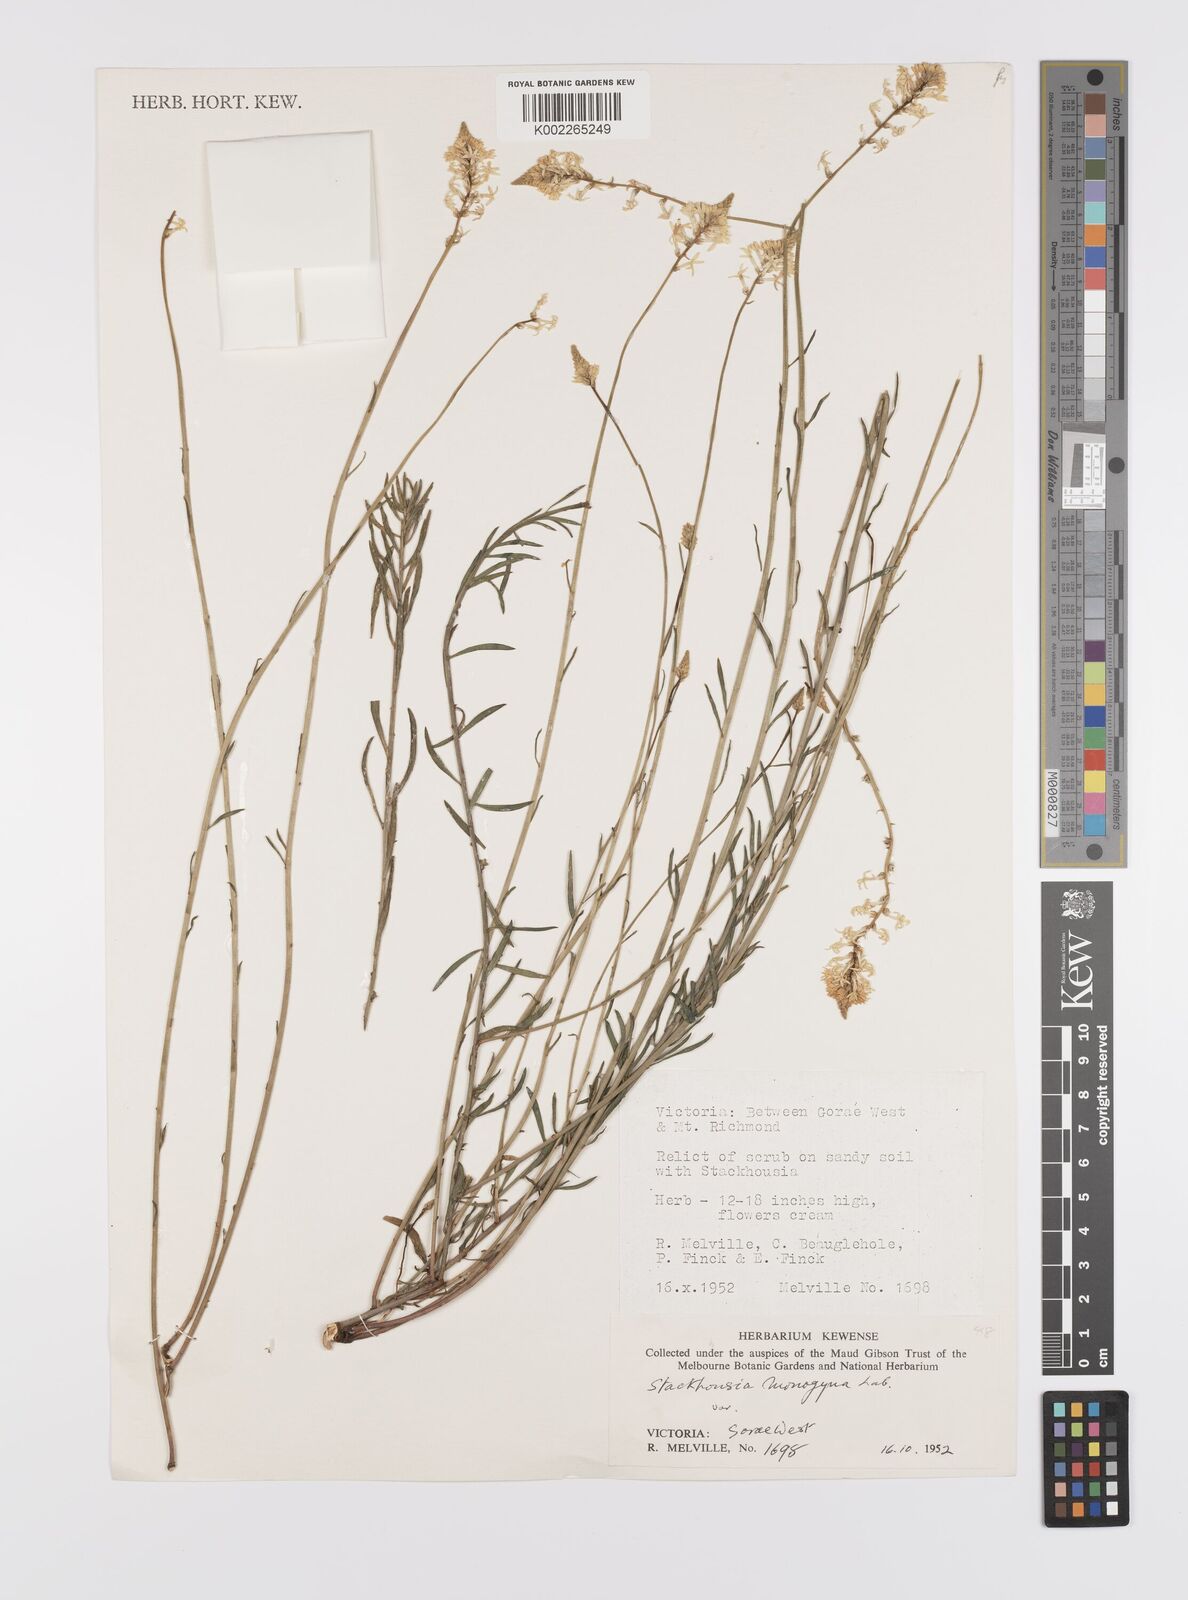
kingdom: Plantae
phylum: Tracheophyta
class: Magnoliopsida
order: Celastrales
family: Celastraceae
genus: Stackhousia
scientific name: Stackhousia monogyna
